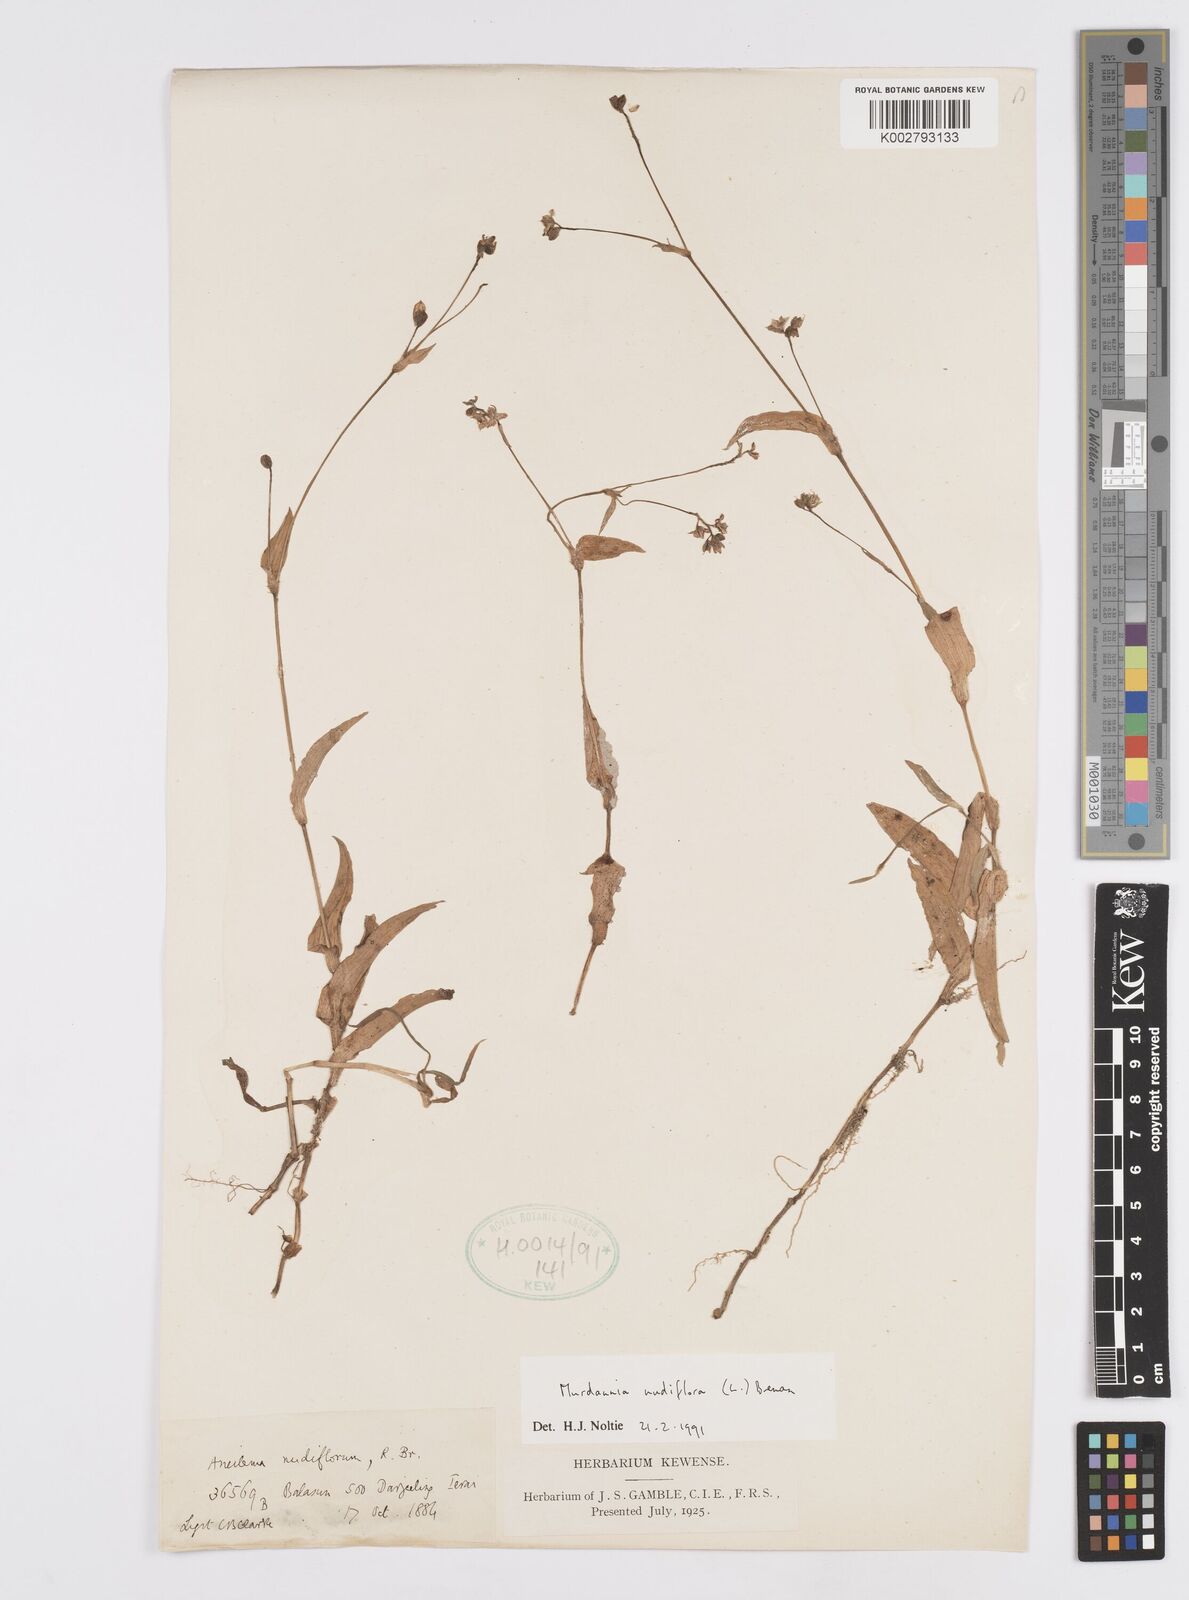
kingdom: Plantae
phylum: Tracheophyta
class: Liliopsida
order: Commelinales
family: Commelinaceae
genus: Murdannia
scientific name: Murdannia nudiflora
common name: Nakedstem dewflower
